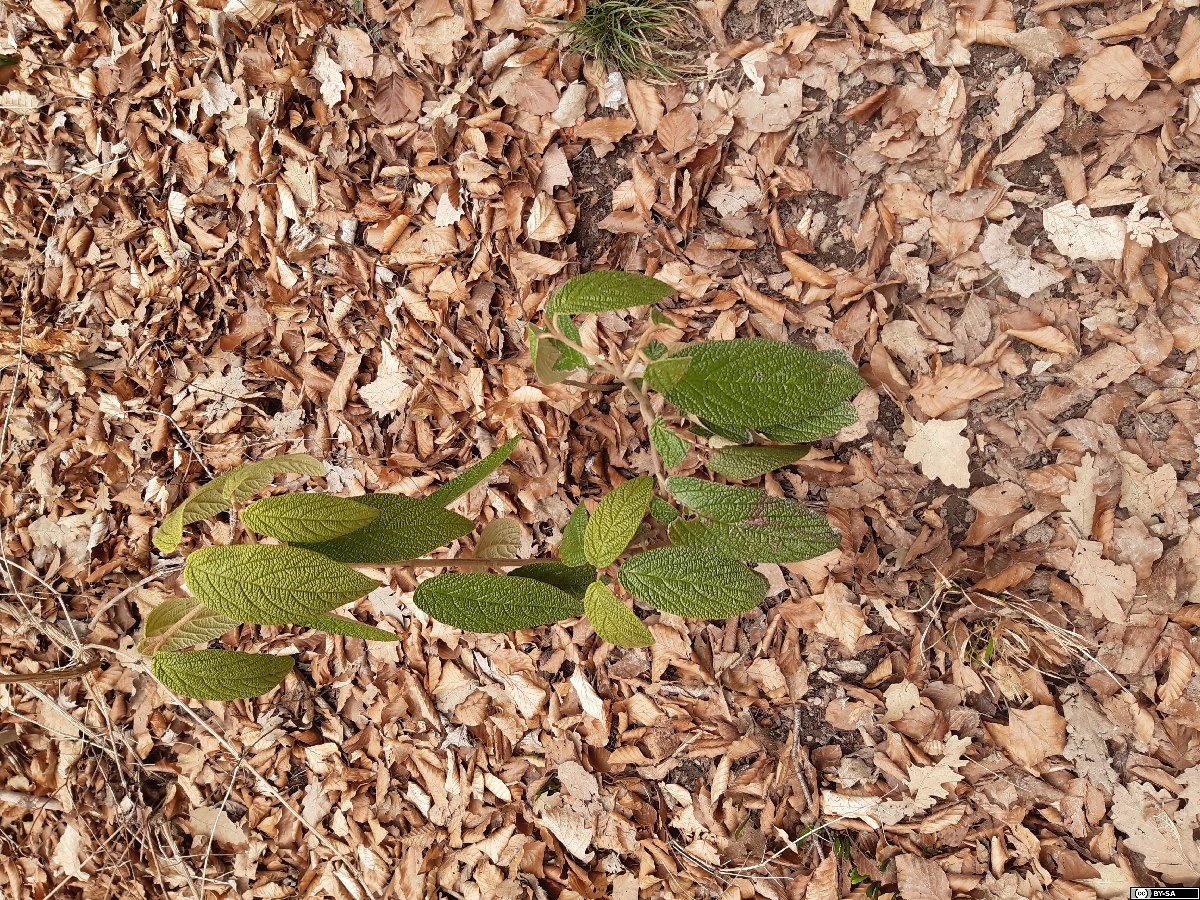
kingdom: Plantae
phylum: Tracheophyta
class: Magnoliopsida
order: Dipsacales
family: Viburnaceae
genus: Viburnum
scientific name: Viburnum rhytidophyllum
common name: Wrinkled viburnum
